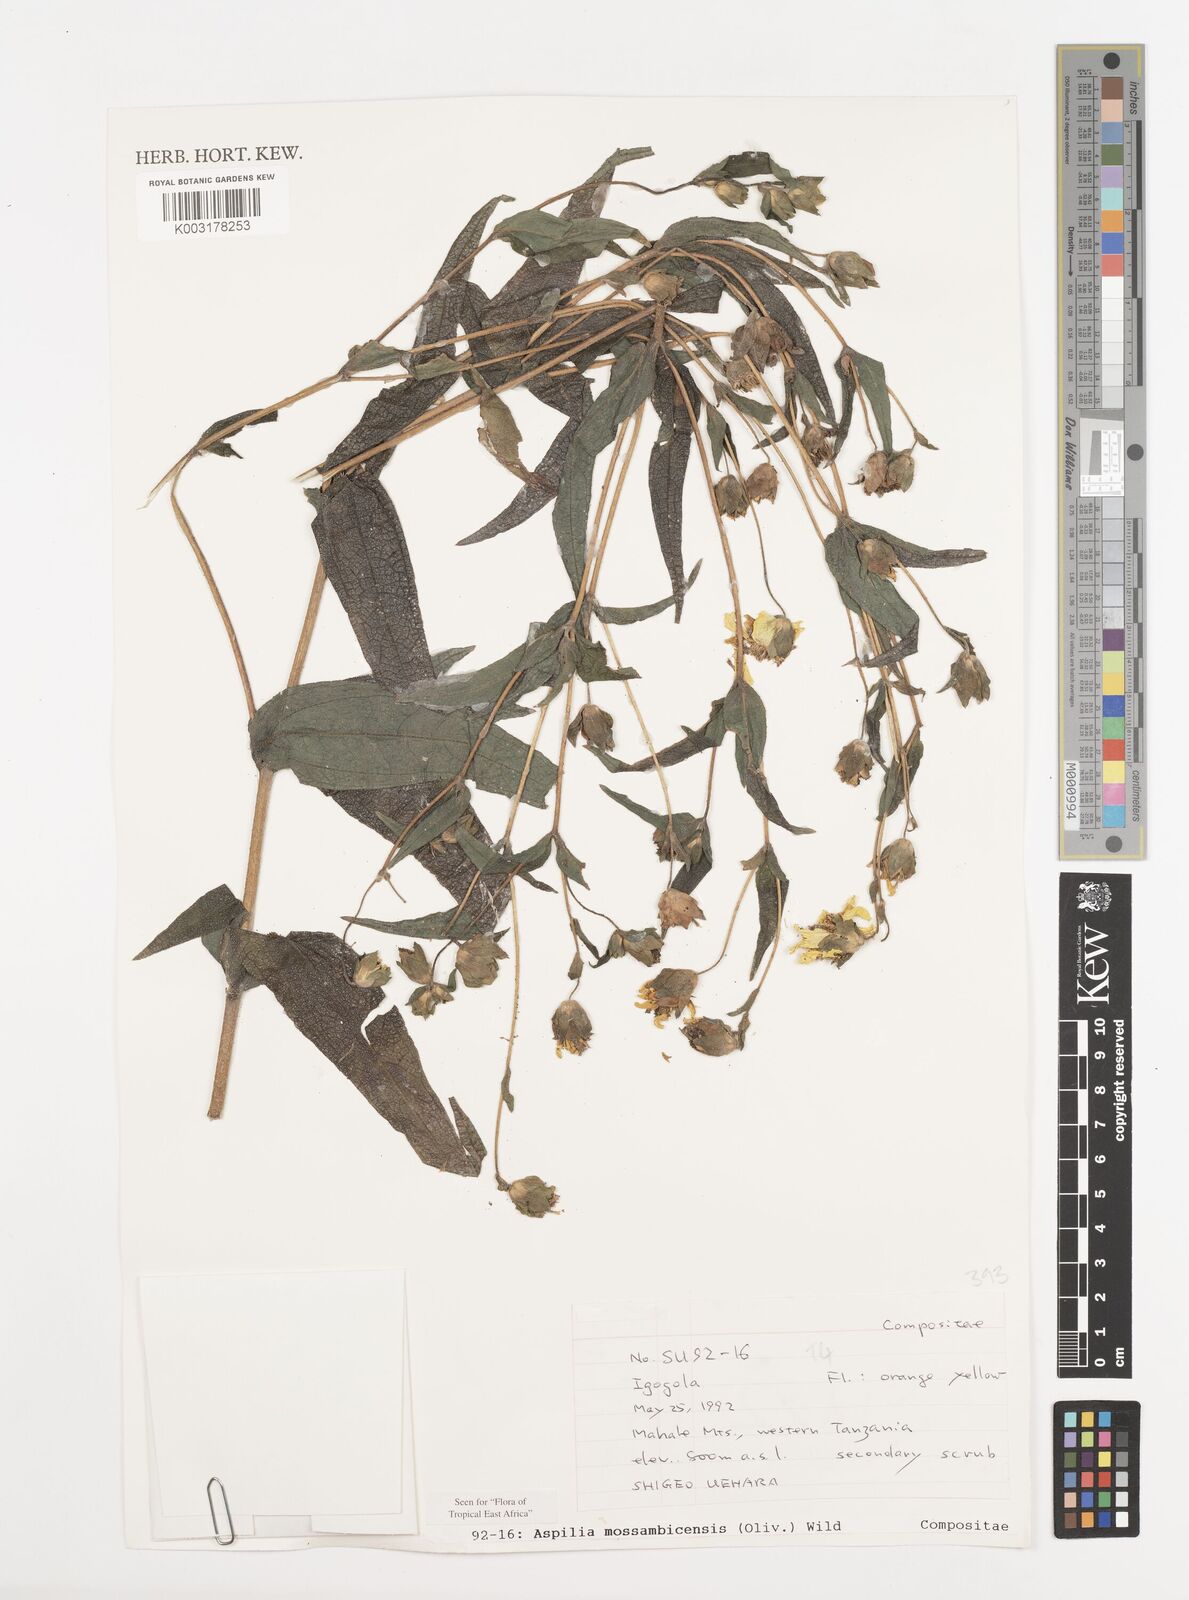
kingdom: Plantae
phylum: Tracheophyta
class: Magnoliopsida
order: Asterales
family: Asteraceae
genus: Aspilia
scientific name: Aspilia mossambicensis
